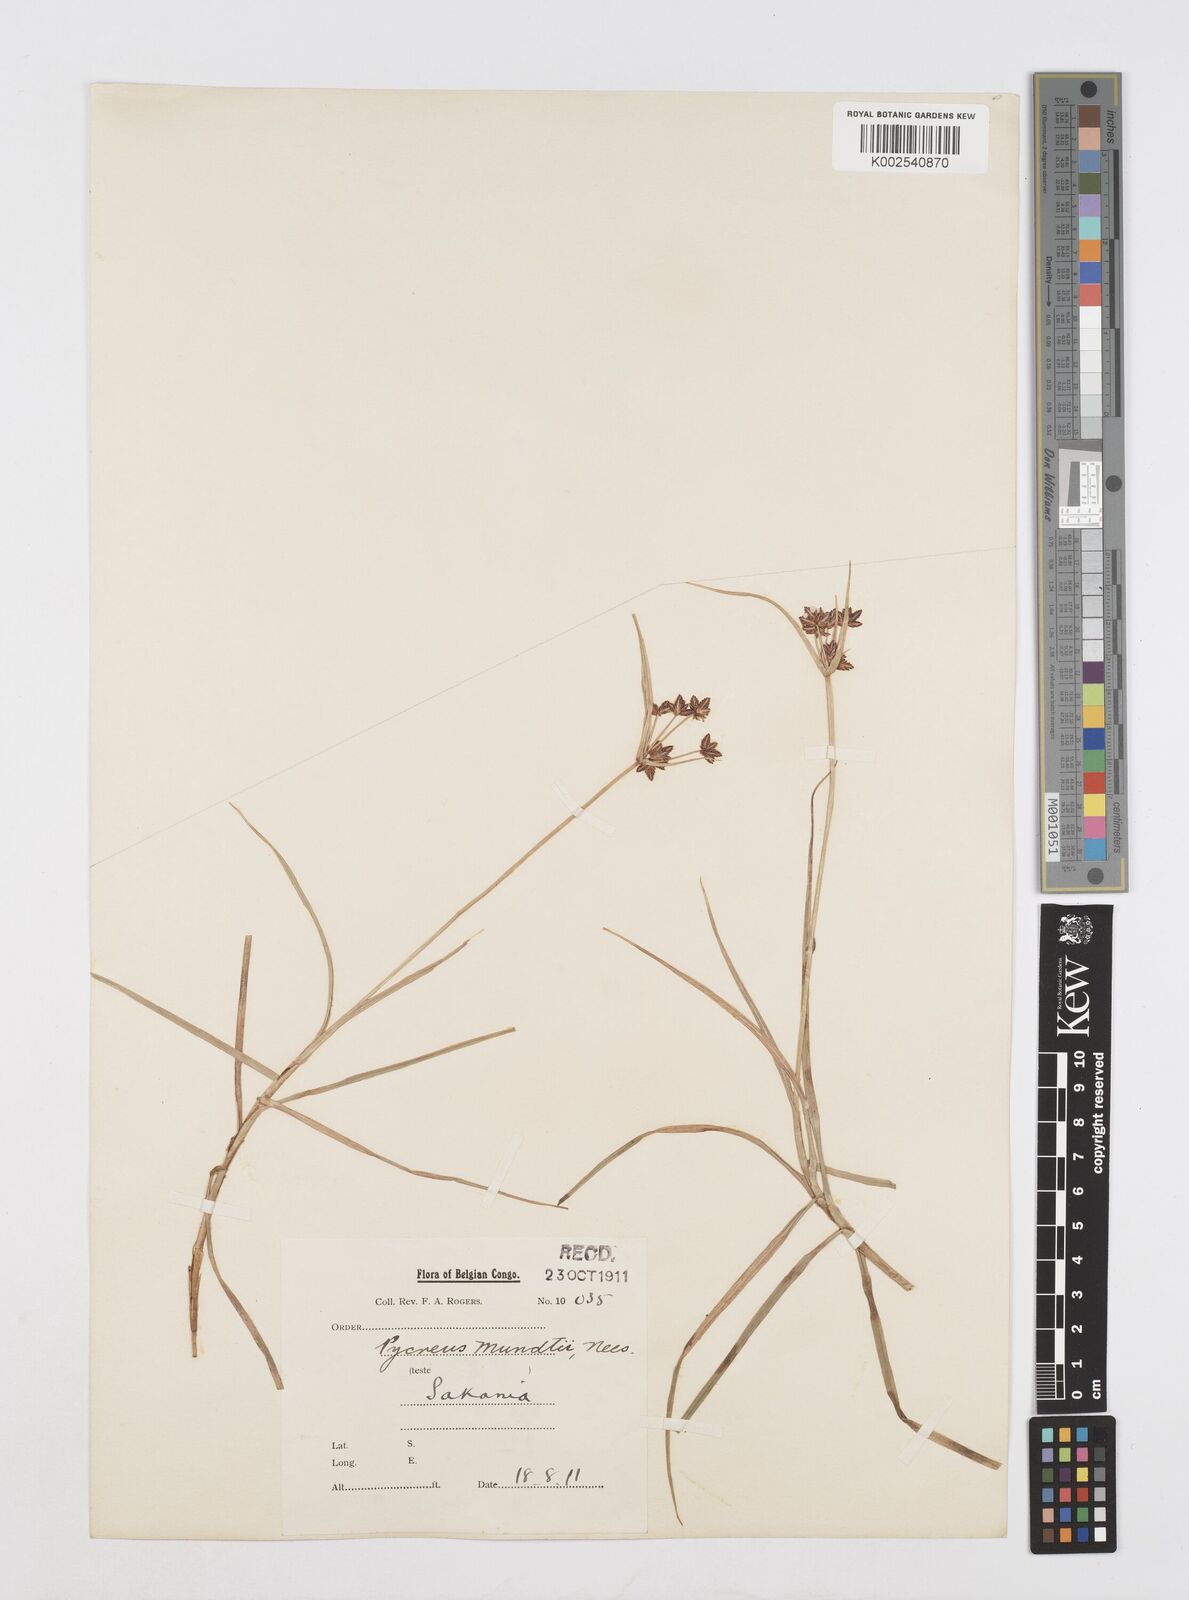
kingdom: Plantae
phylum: Tracheophyta
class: Liliopsida
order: Poales
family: Cyperaceae
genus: Cyperus
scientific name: Cyperus mundii
